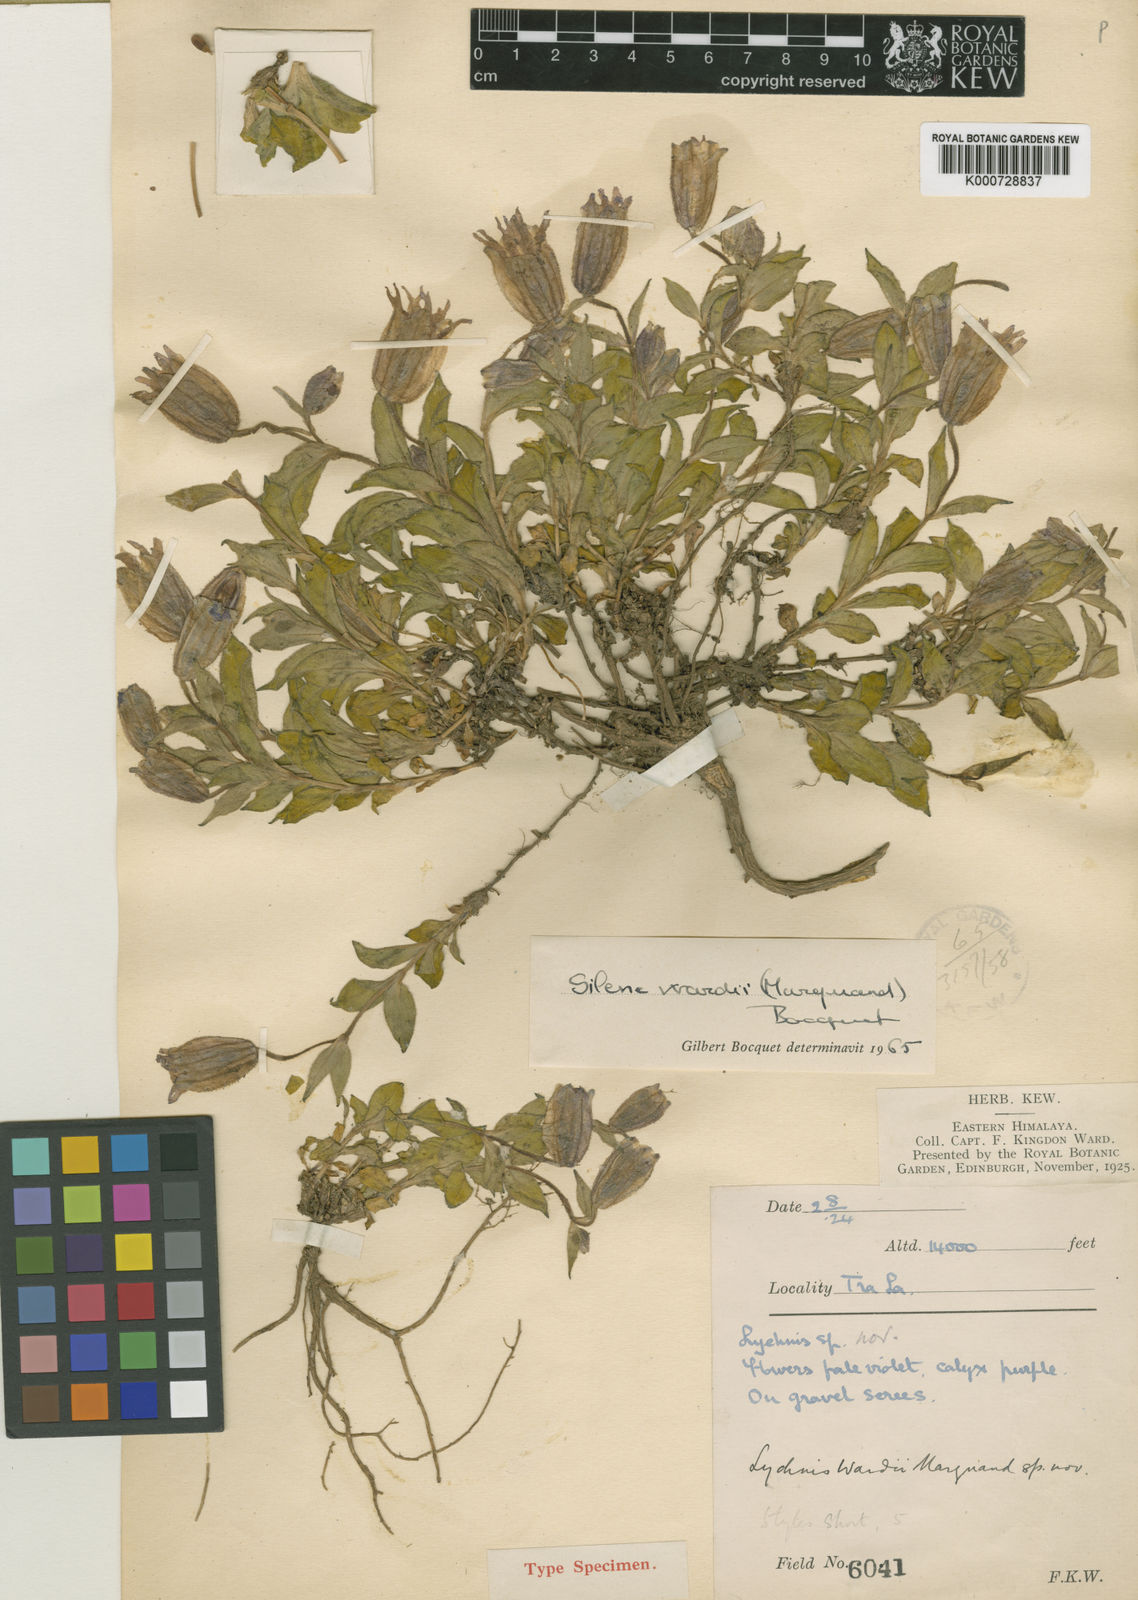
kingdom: Plantae
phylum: Tracheophyta
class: Magnoliopsida
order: Caryophyllales
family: Caryophyllaceae
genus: Silene
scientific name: Silene wardii
